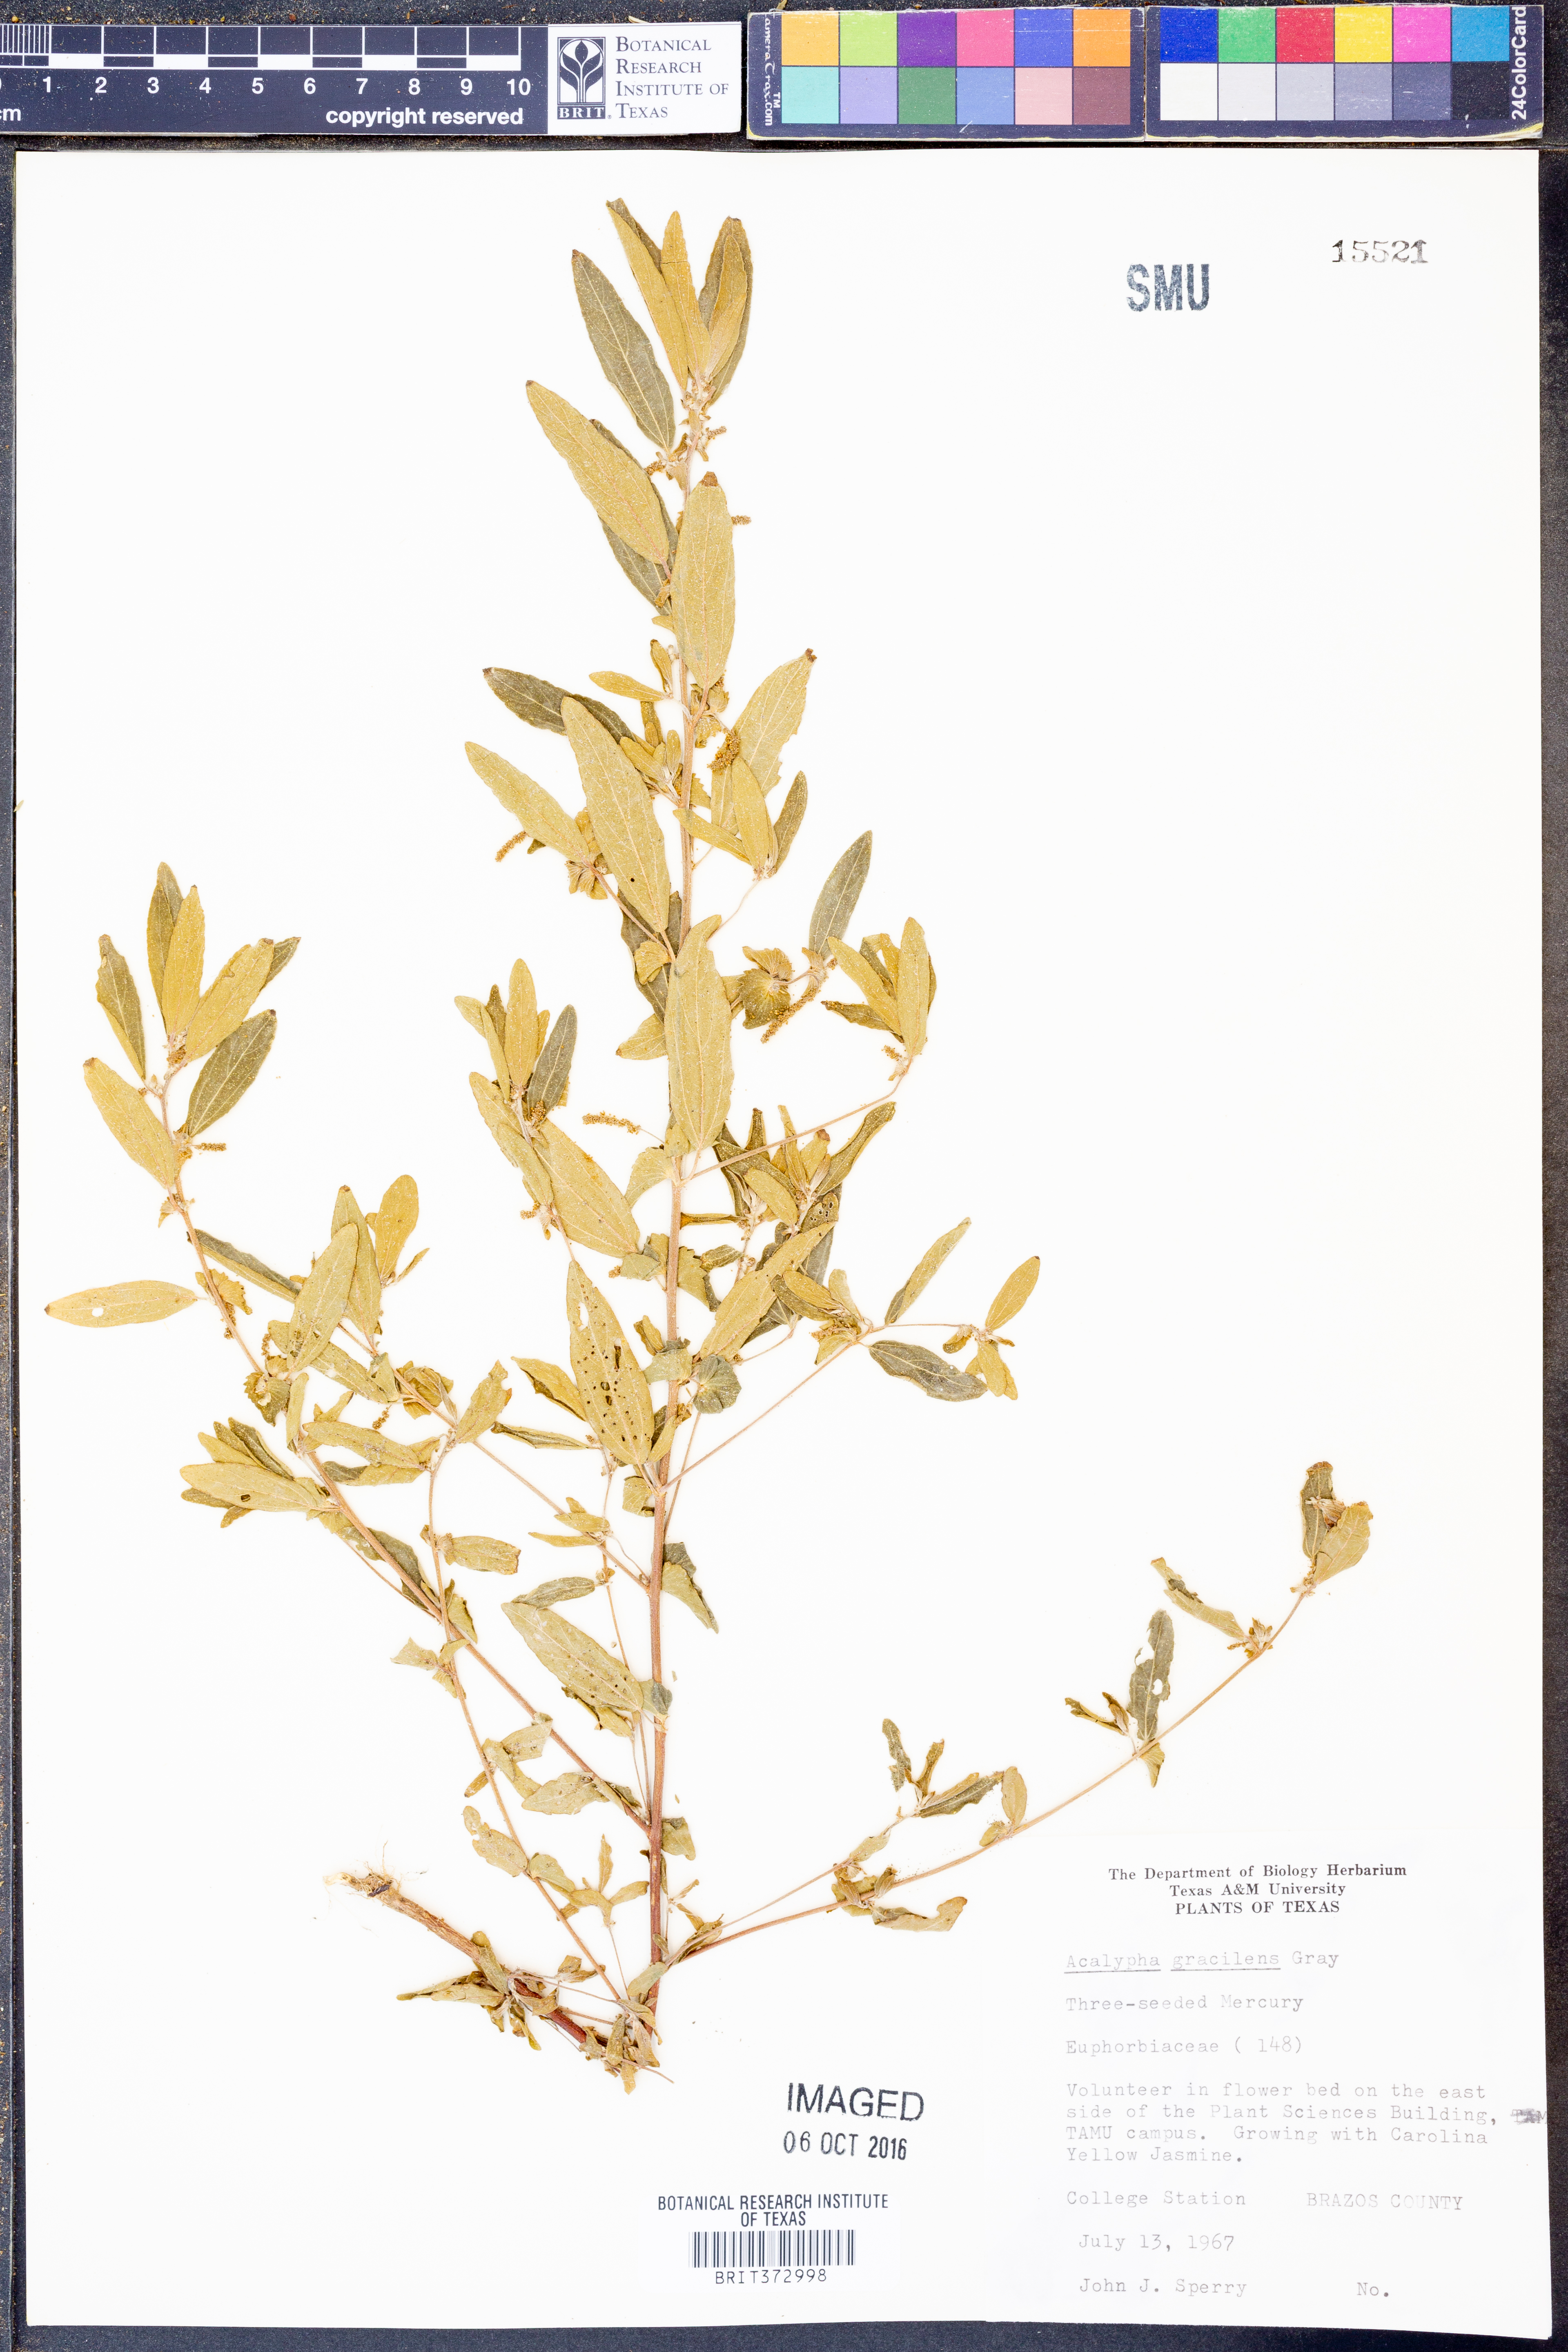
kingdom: Plantae
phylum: Tracheophyta
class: Magnoliopsida
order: Malpighiales
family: Euphorbiaceae
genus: Acalypha
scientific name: Acalypha gracilens
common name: Slender three-seeded mercury
